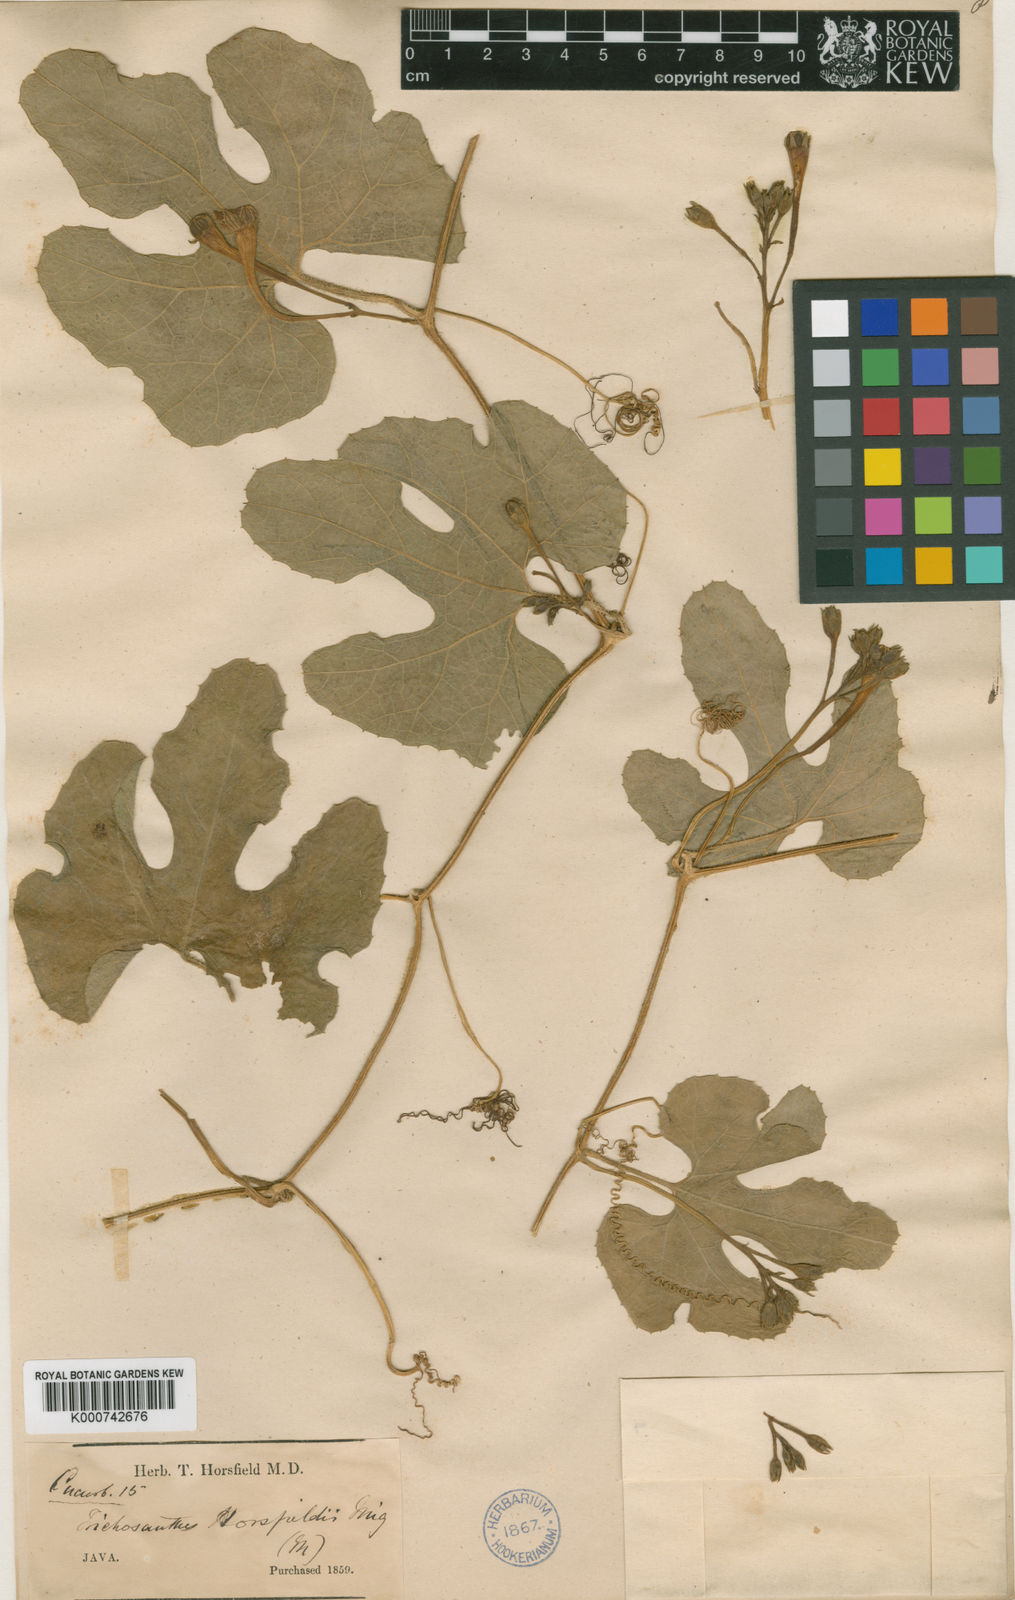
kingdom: Plantae
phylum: Tracheophyta
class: Magnoliopsida
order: Cucurbitales
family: Cucurbitaceae
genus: Trichosanthes
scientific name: Trichosanthes ovigera
